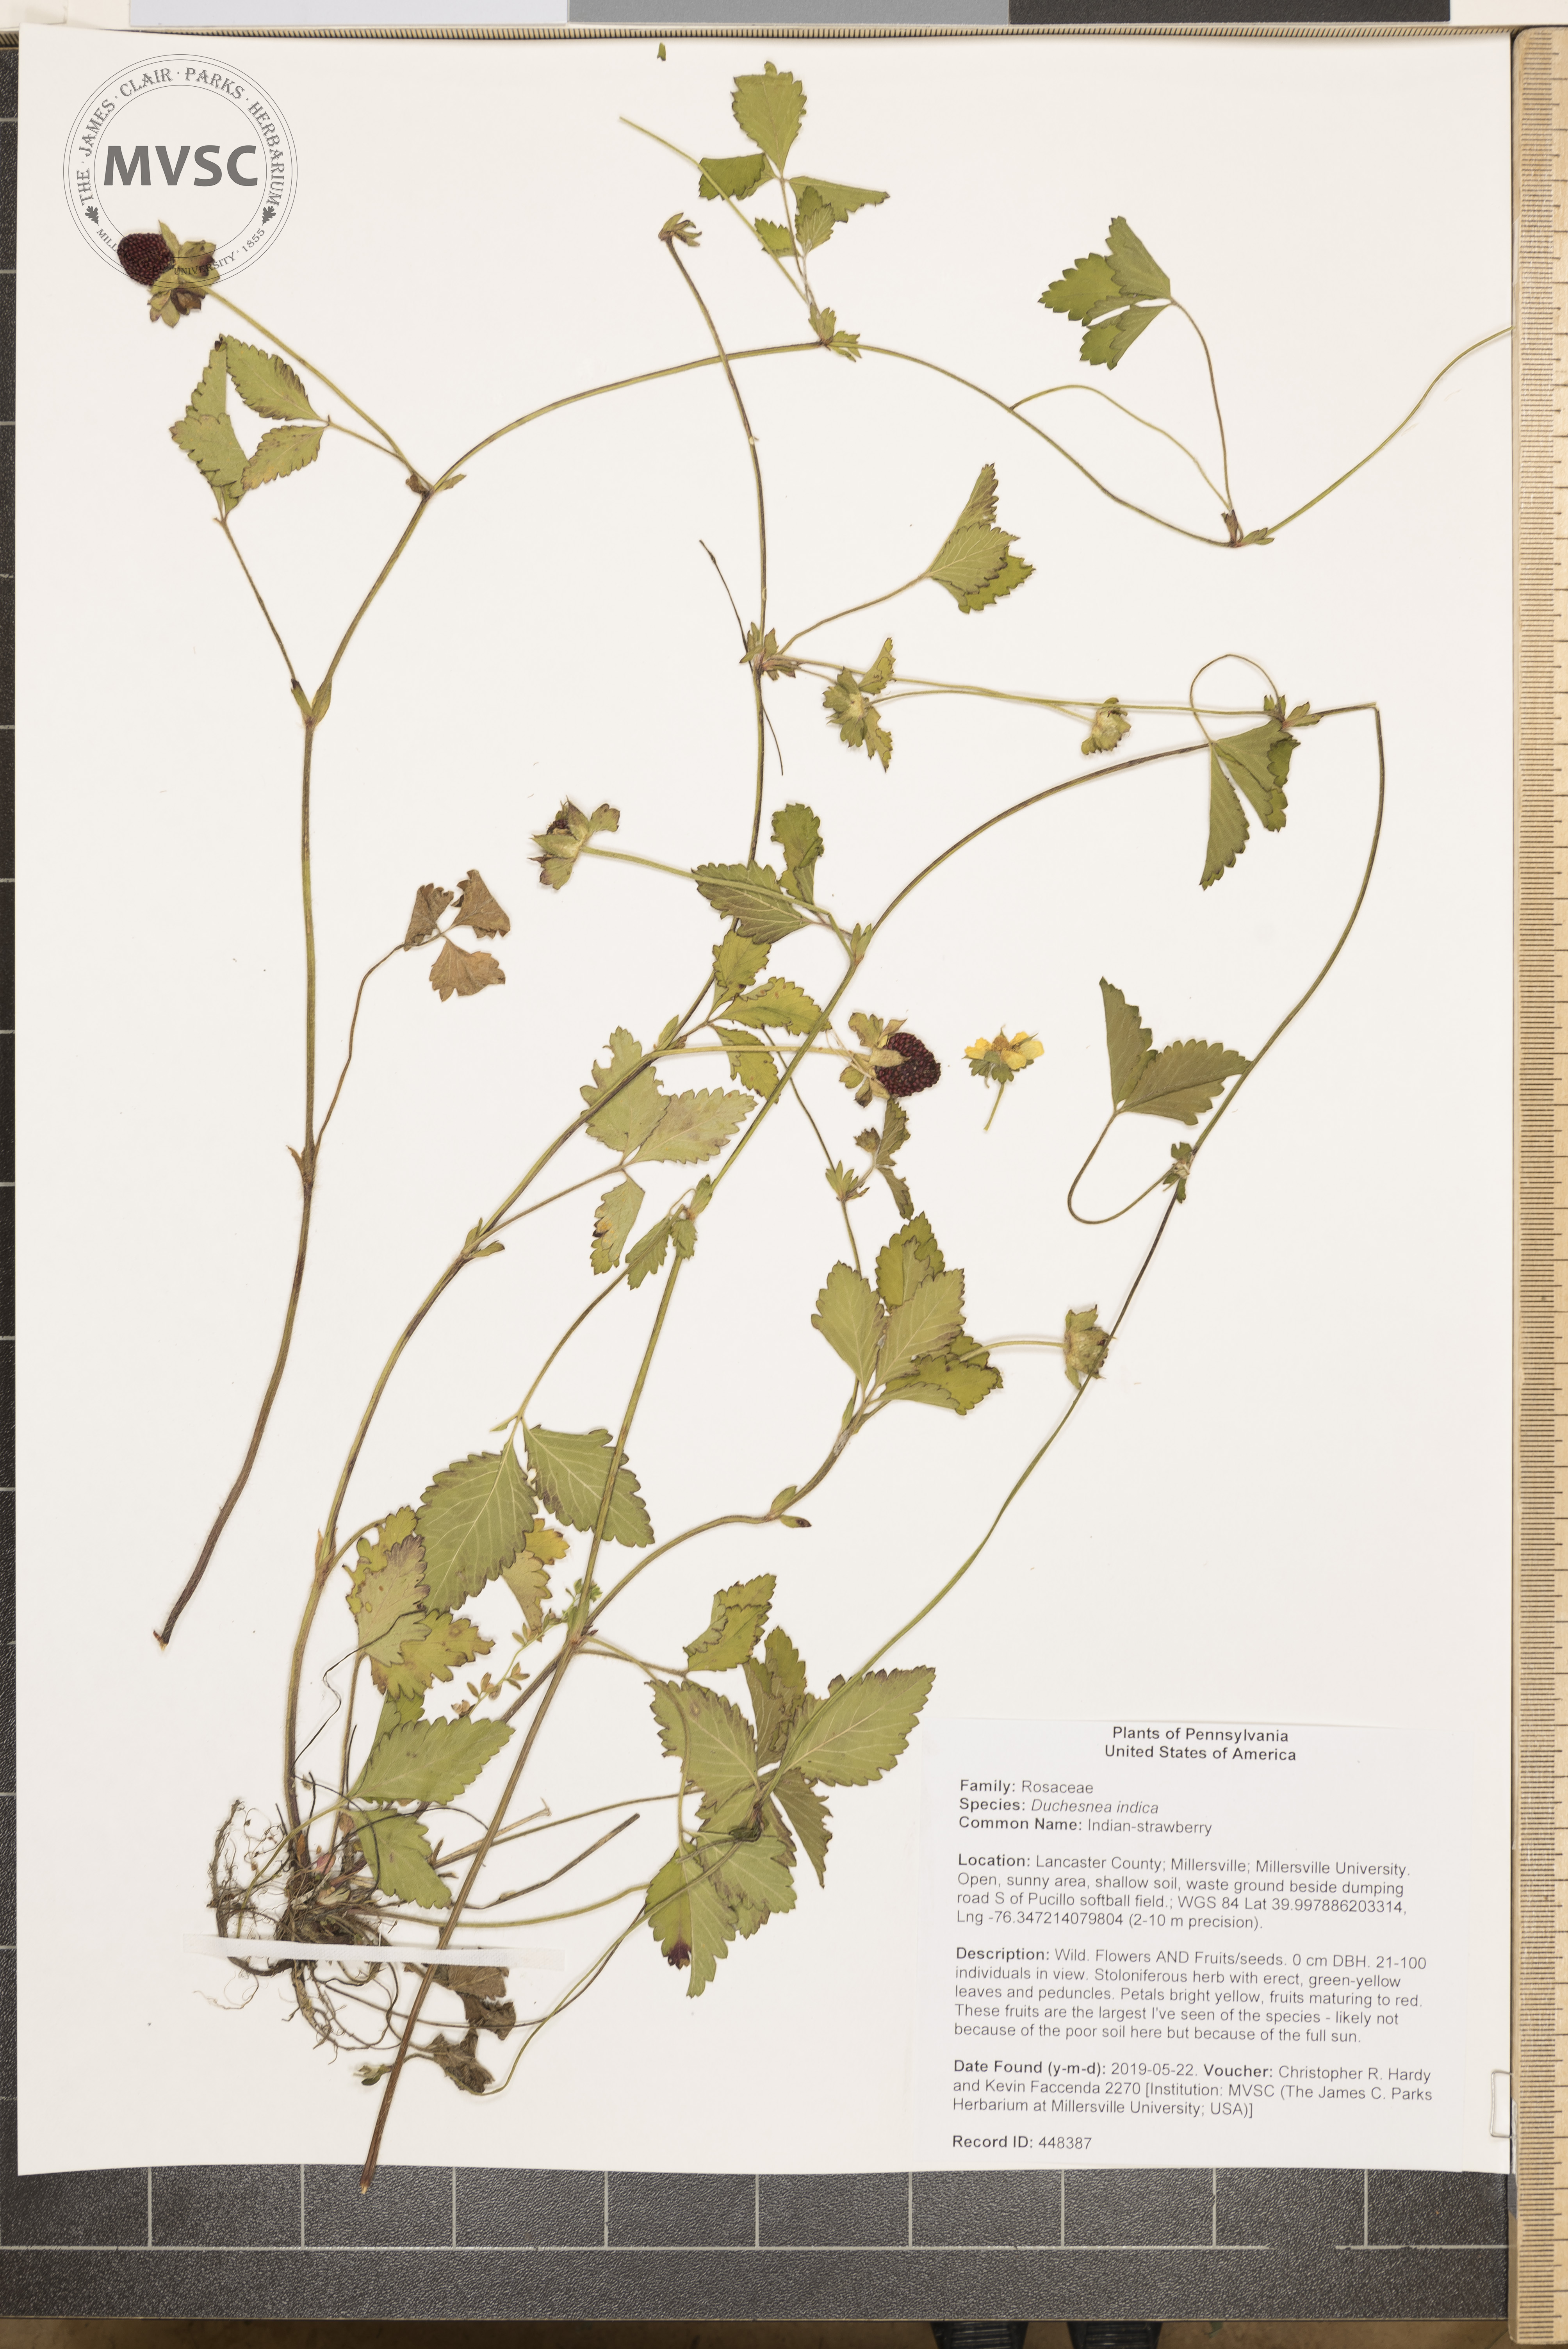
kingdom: Plantae
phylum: Tracheophyta
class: Magnoliopsida
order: Rosales
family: Rosaceae
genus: Potentilla
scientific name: Potentilla indica
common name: Indian-strawberry
